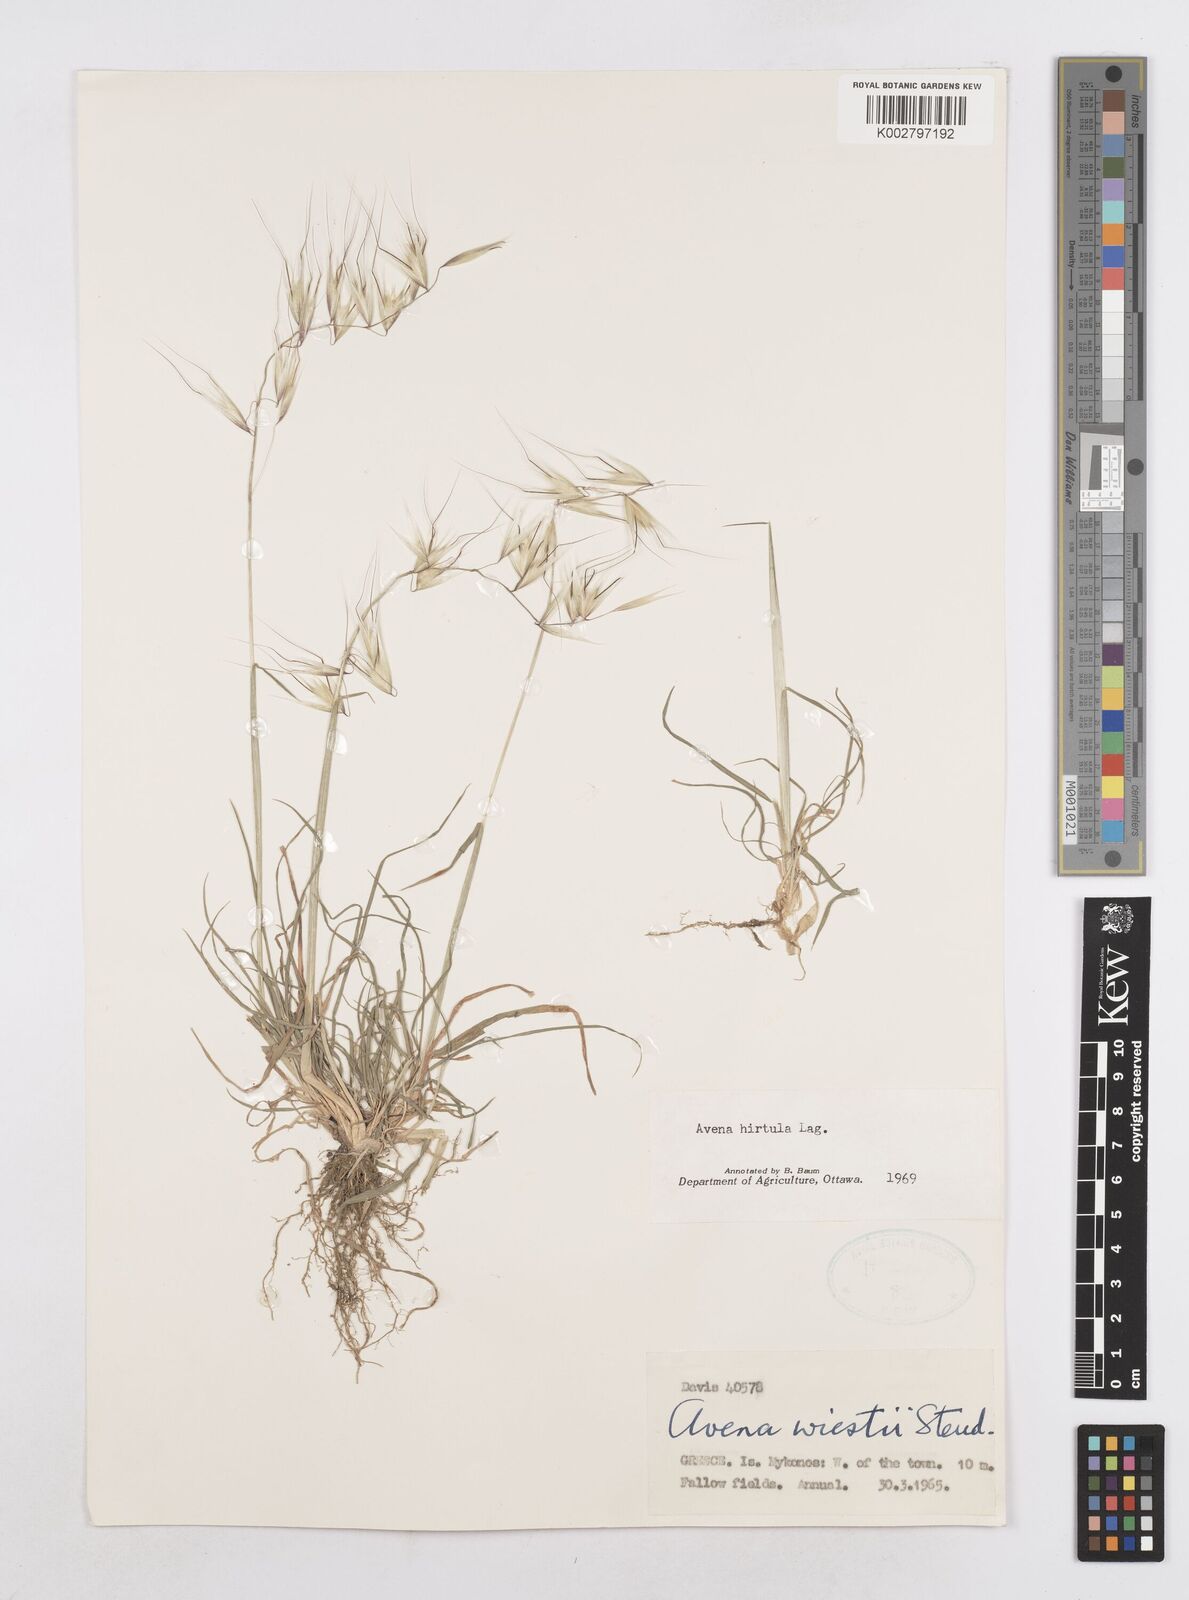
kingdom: Plantae
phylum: Tracheophyta
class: Liliopsida
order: Poales
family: Poaceae
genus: Avena
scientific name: Avena
